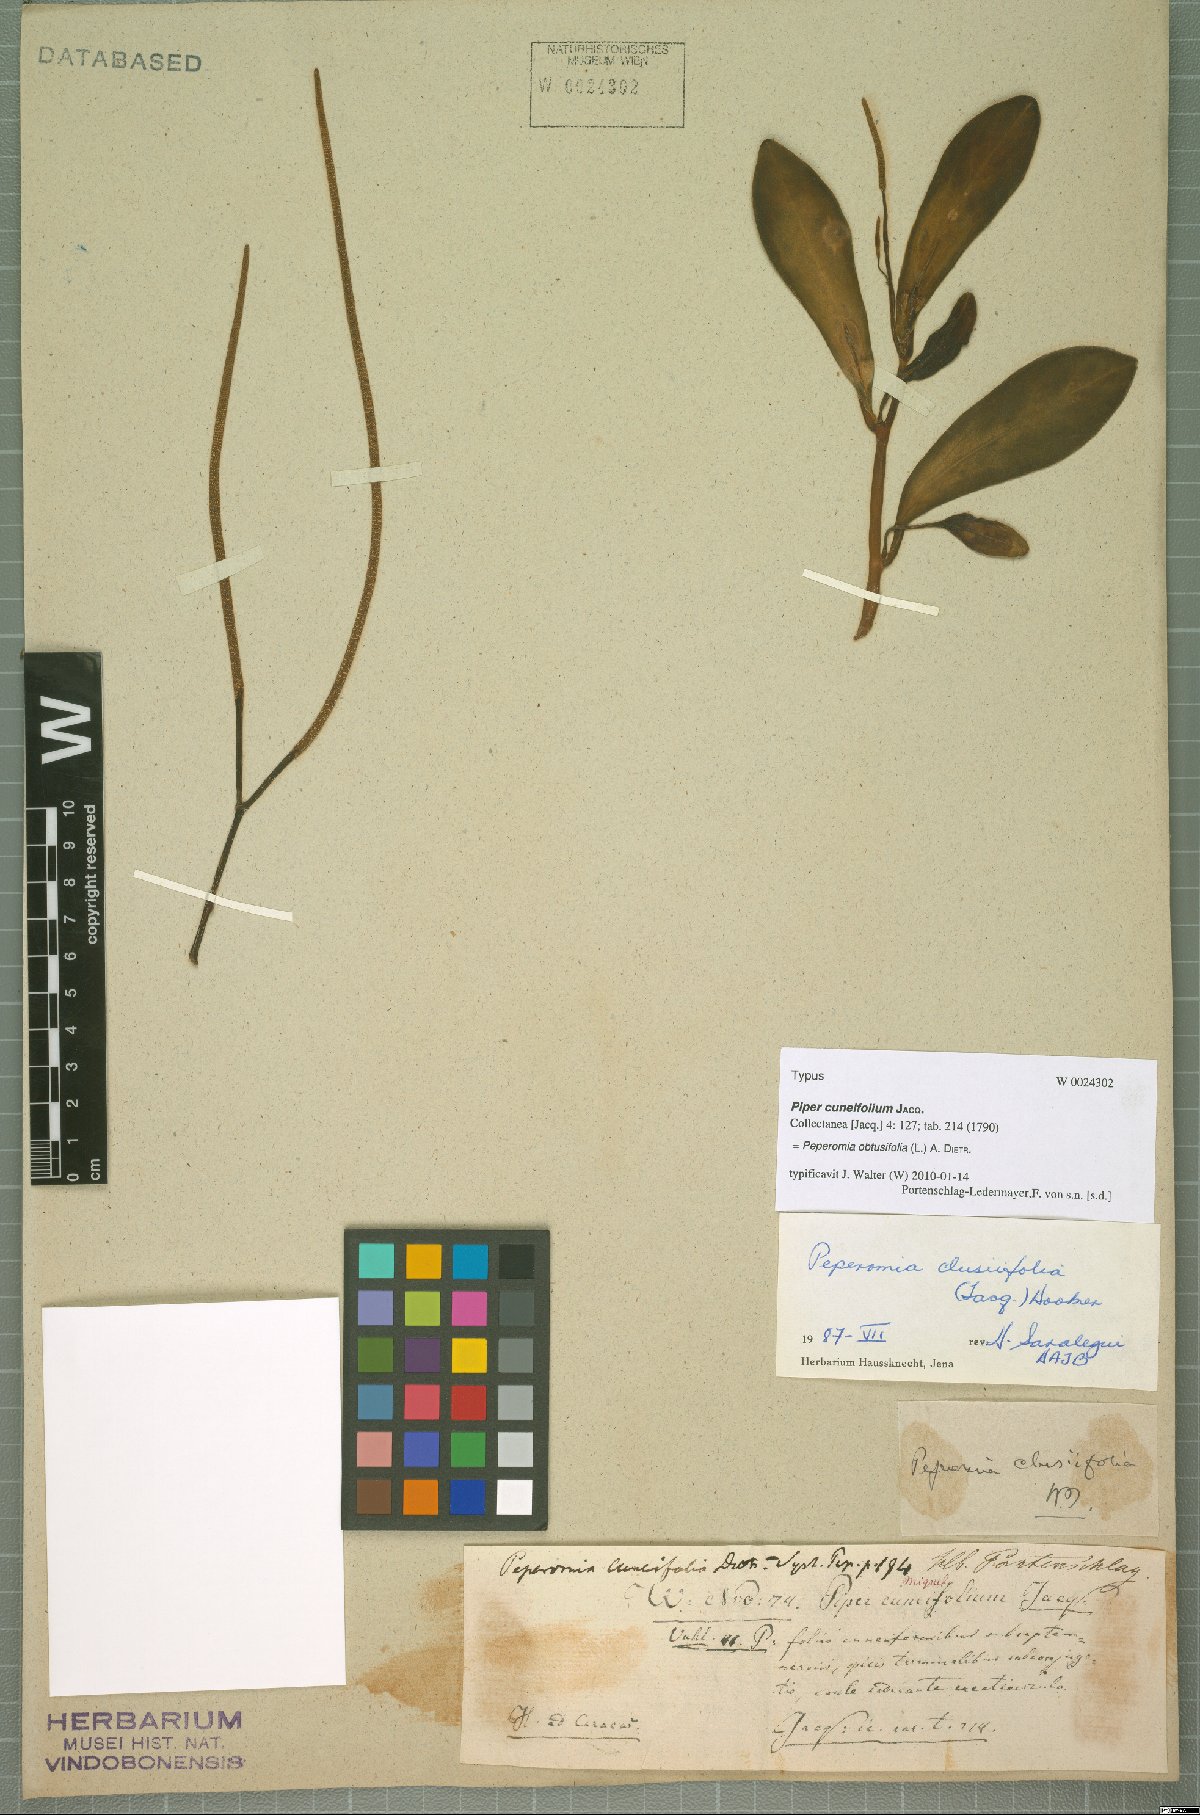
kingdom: Plantae
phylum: Tracheophyta
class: Magnoliopsida
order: Piperales
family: Piperaceae
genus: Peperomia
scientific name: Peperomia obtusifolia
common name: Baby rubberplant
